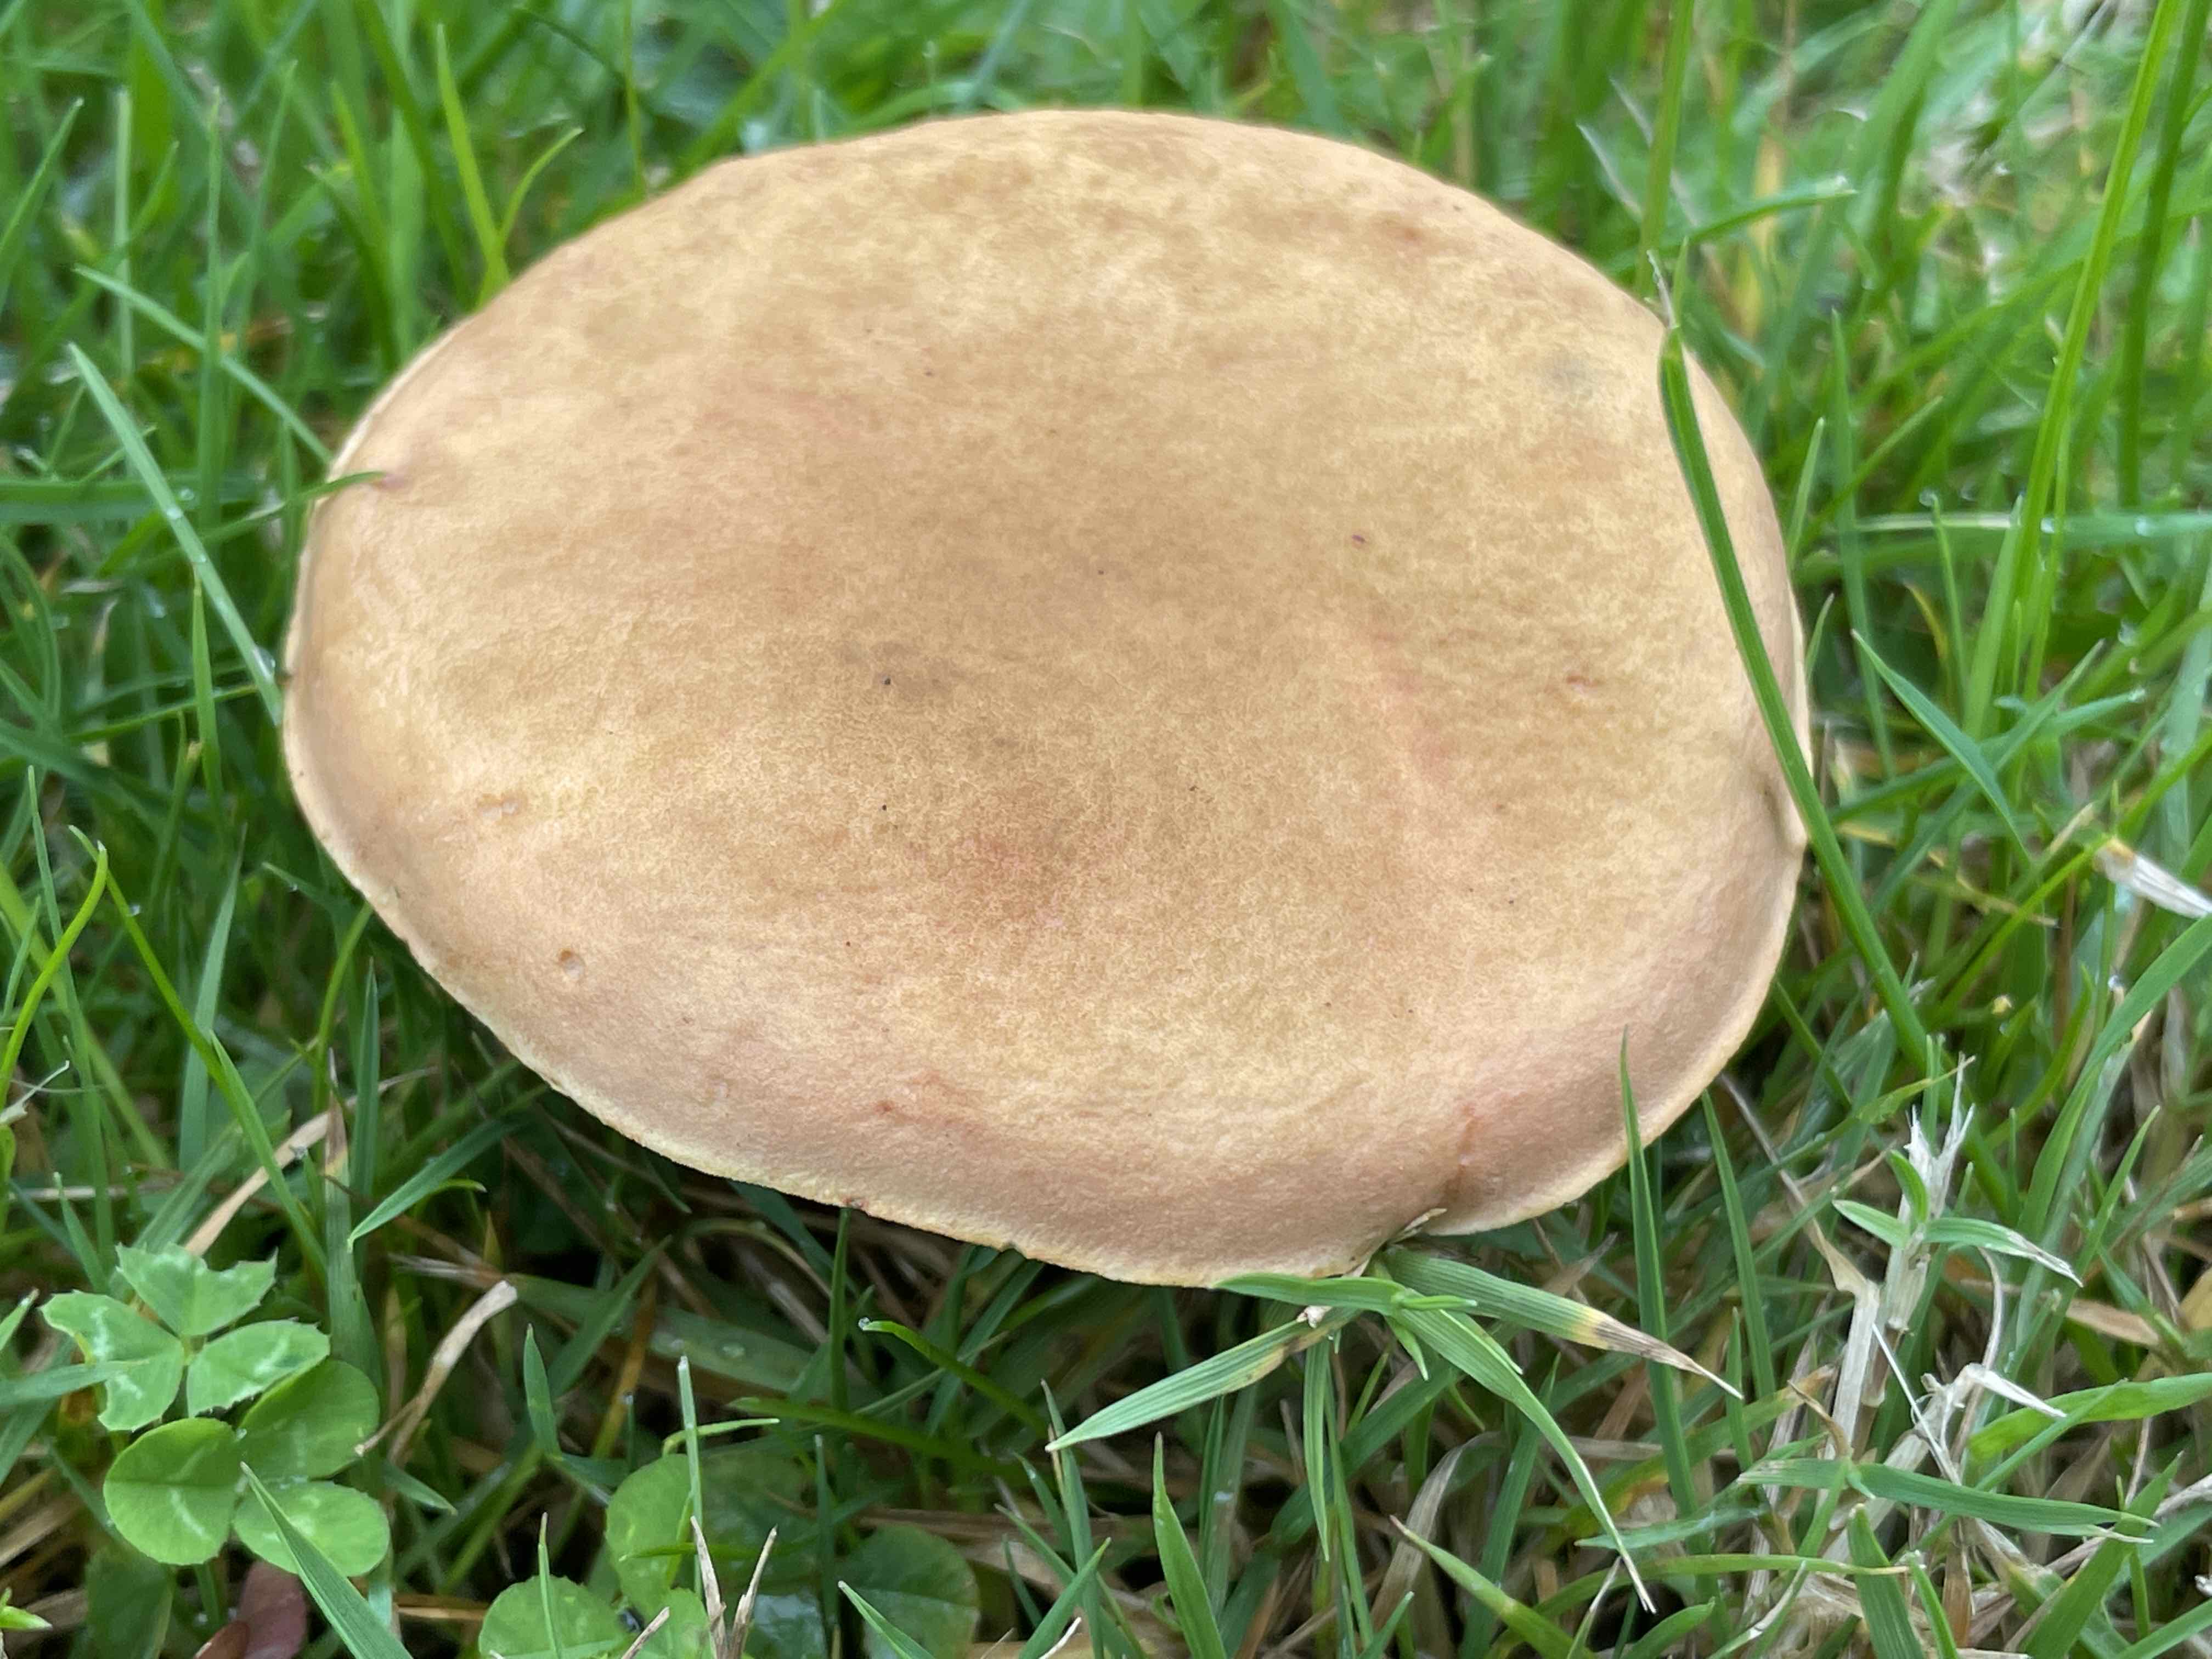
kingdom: Fungi
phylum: Basidiomycota
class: Agaricomycetes
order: Boletales
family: Boletaceae
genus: Hortiboletus
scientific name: Hortiboletus
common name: dværgrørhat
